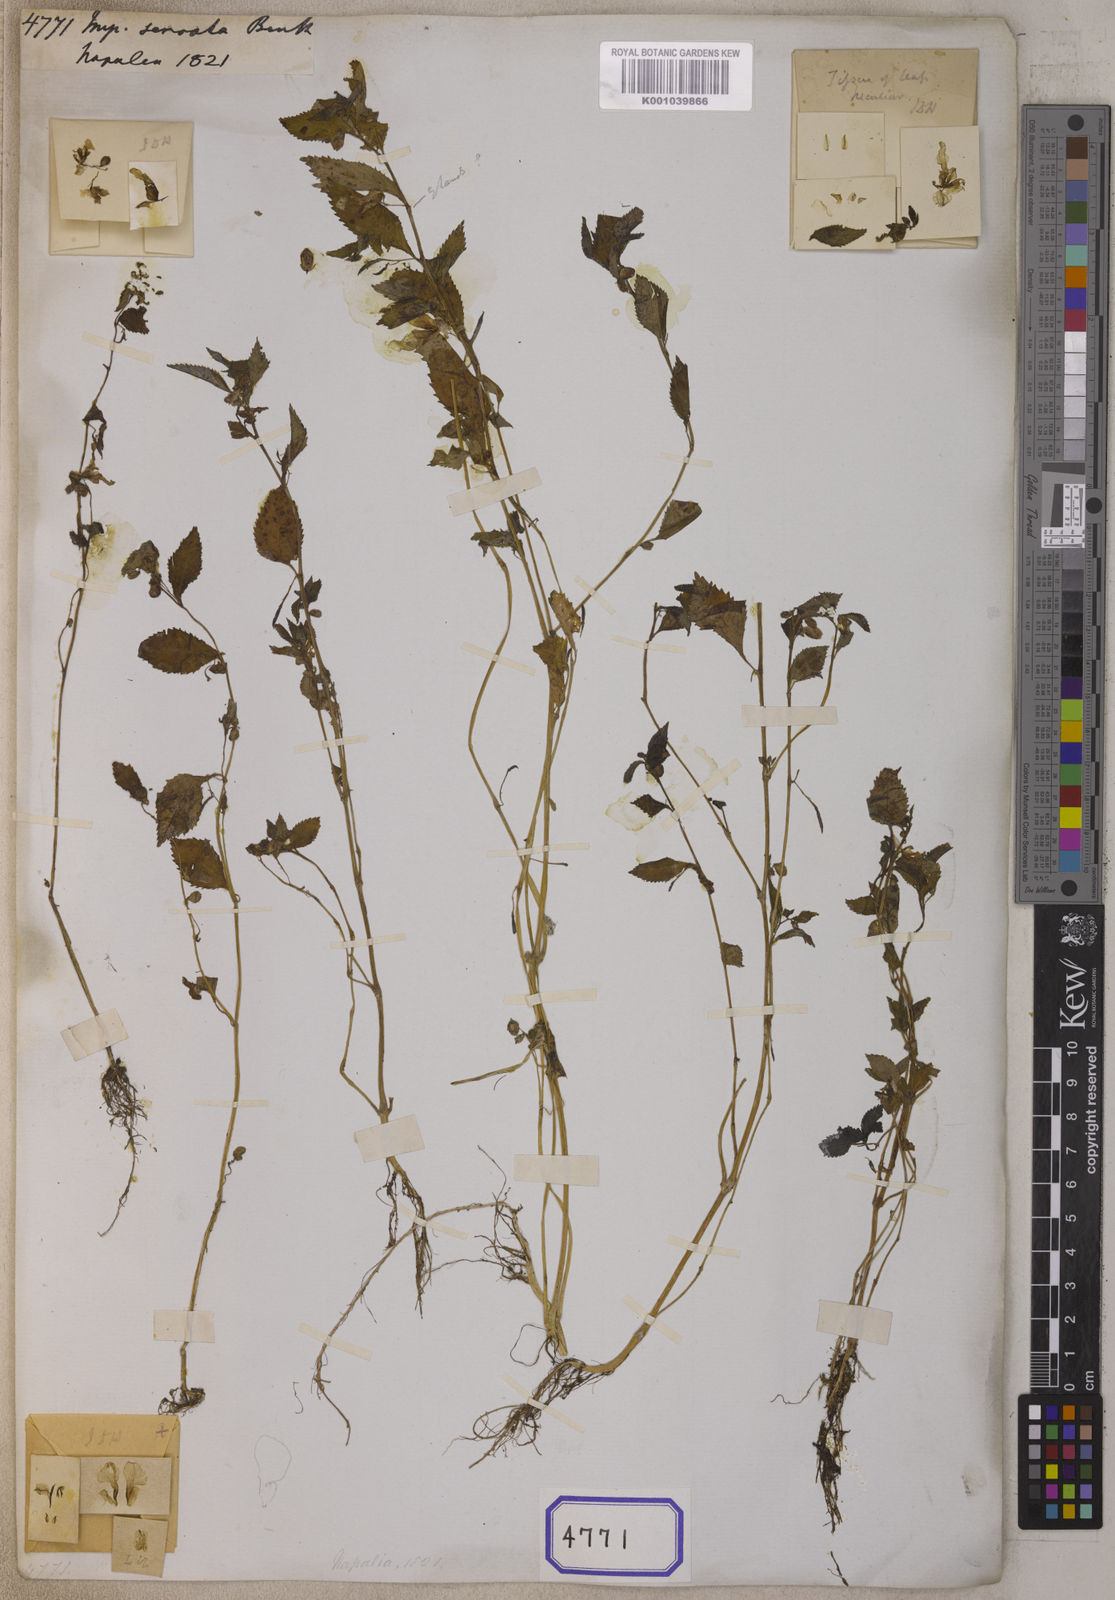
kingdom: Plantae
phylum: Tracheophyta
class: Magnoliopsida
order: Ericales
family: Balsaminaceae
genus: Impatiens
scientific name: Impatiens serrata
